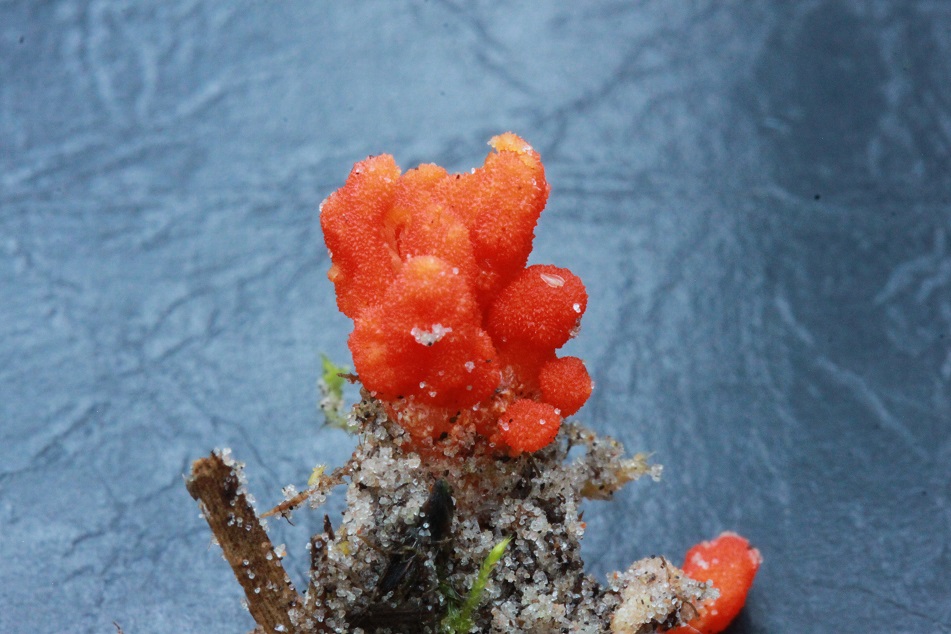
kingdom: Fungi
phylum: Ascomycota
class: Sordariomycetes
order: Hypocreales
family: Cordycipitaceae
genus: Cordyceps
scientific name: Cordyceps militaris
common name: puppe-snyltekølle
